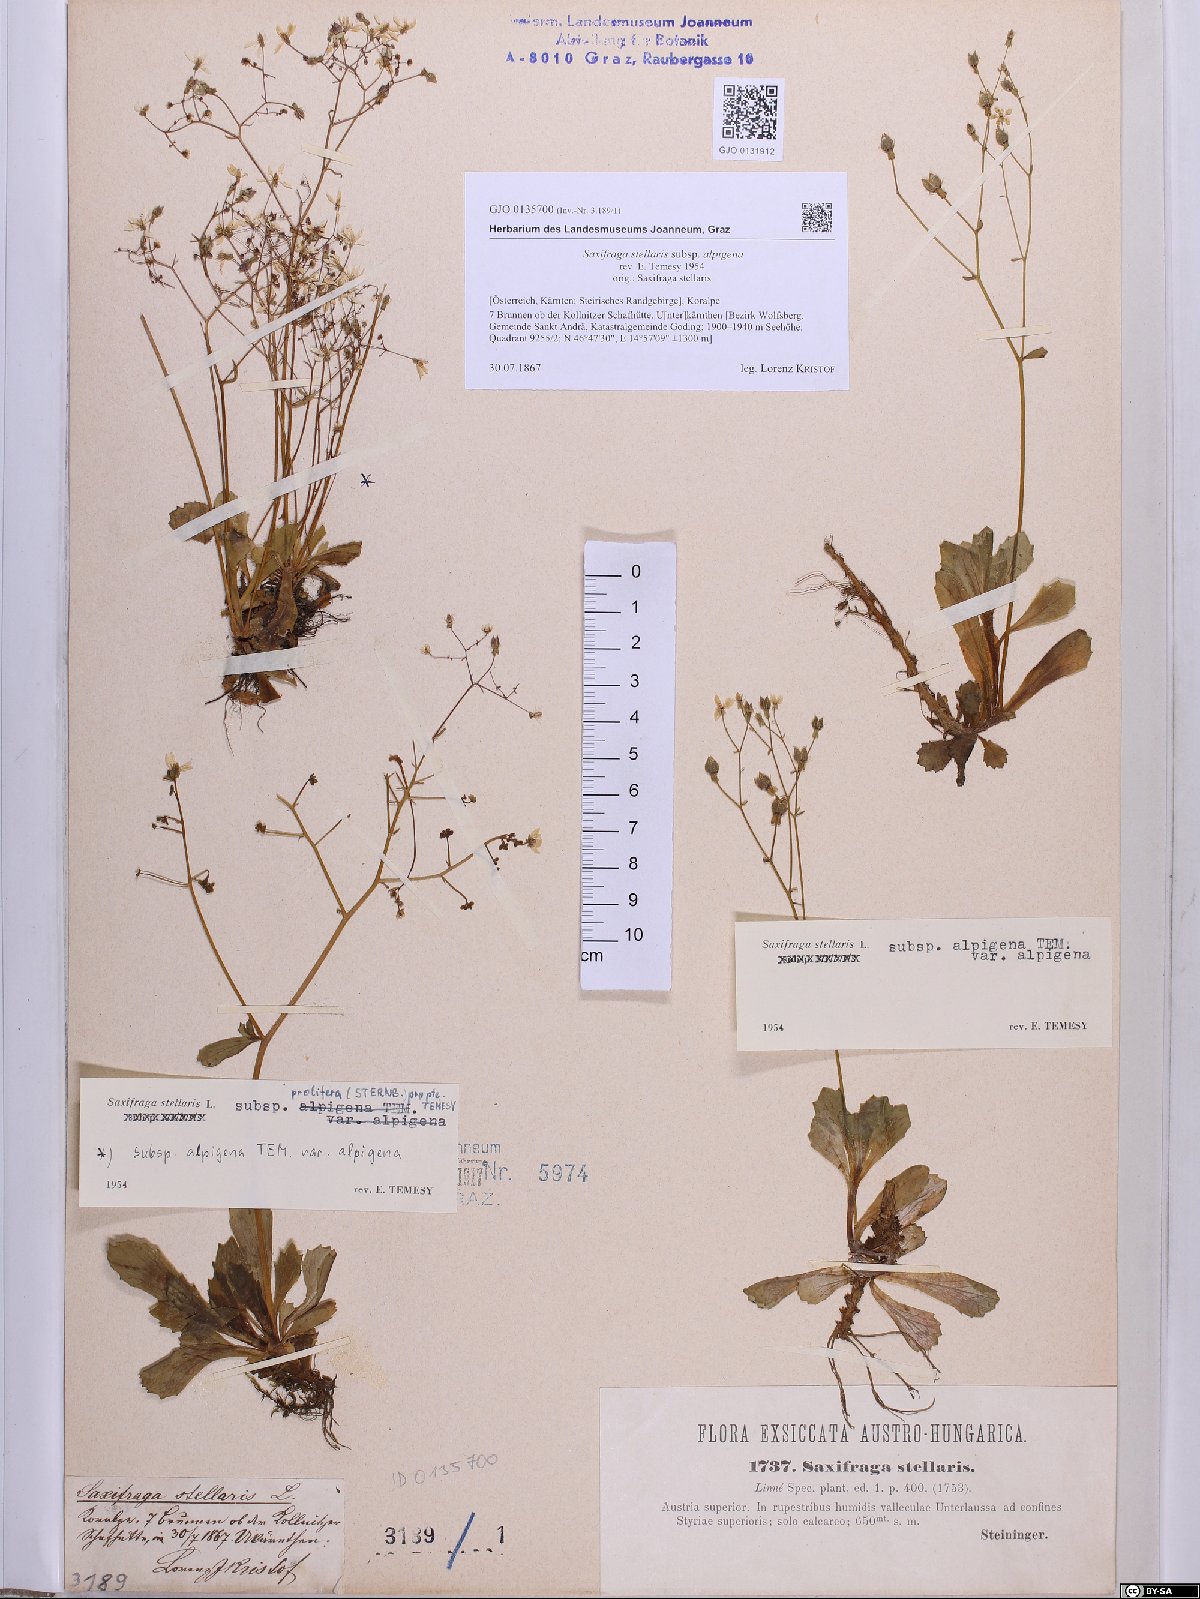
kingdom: Plantae
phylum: Tracheophyta
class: Magnoliopsida
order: Saxifragales
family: Saxifragaceae
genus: Micranthes
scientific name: Micranthes stellaris
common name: Starry saxifrage
